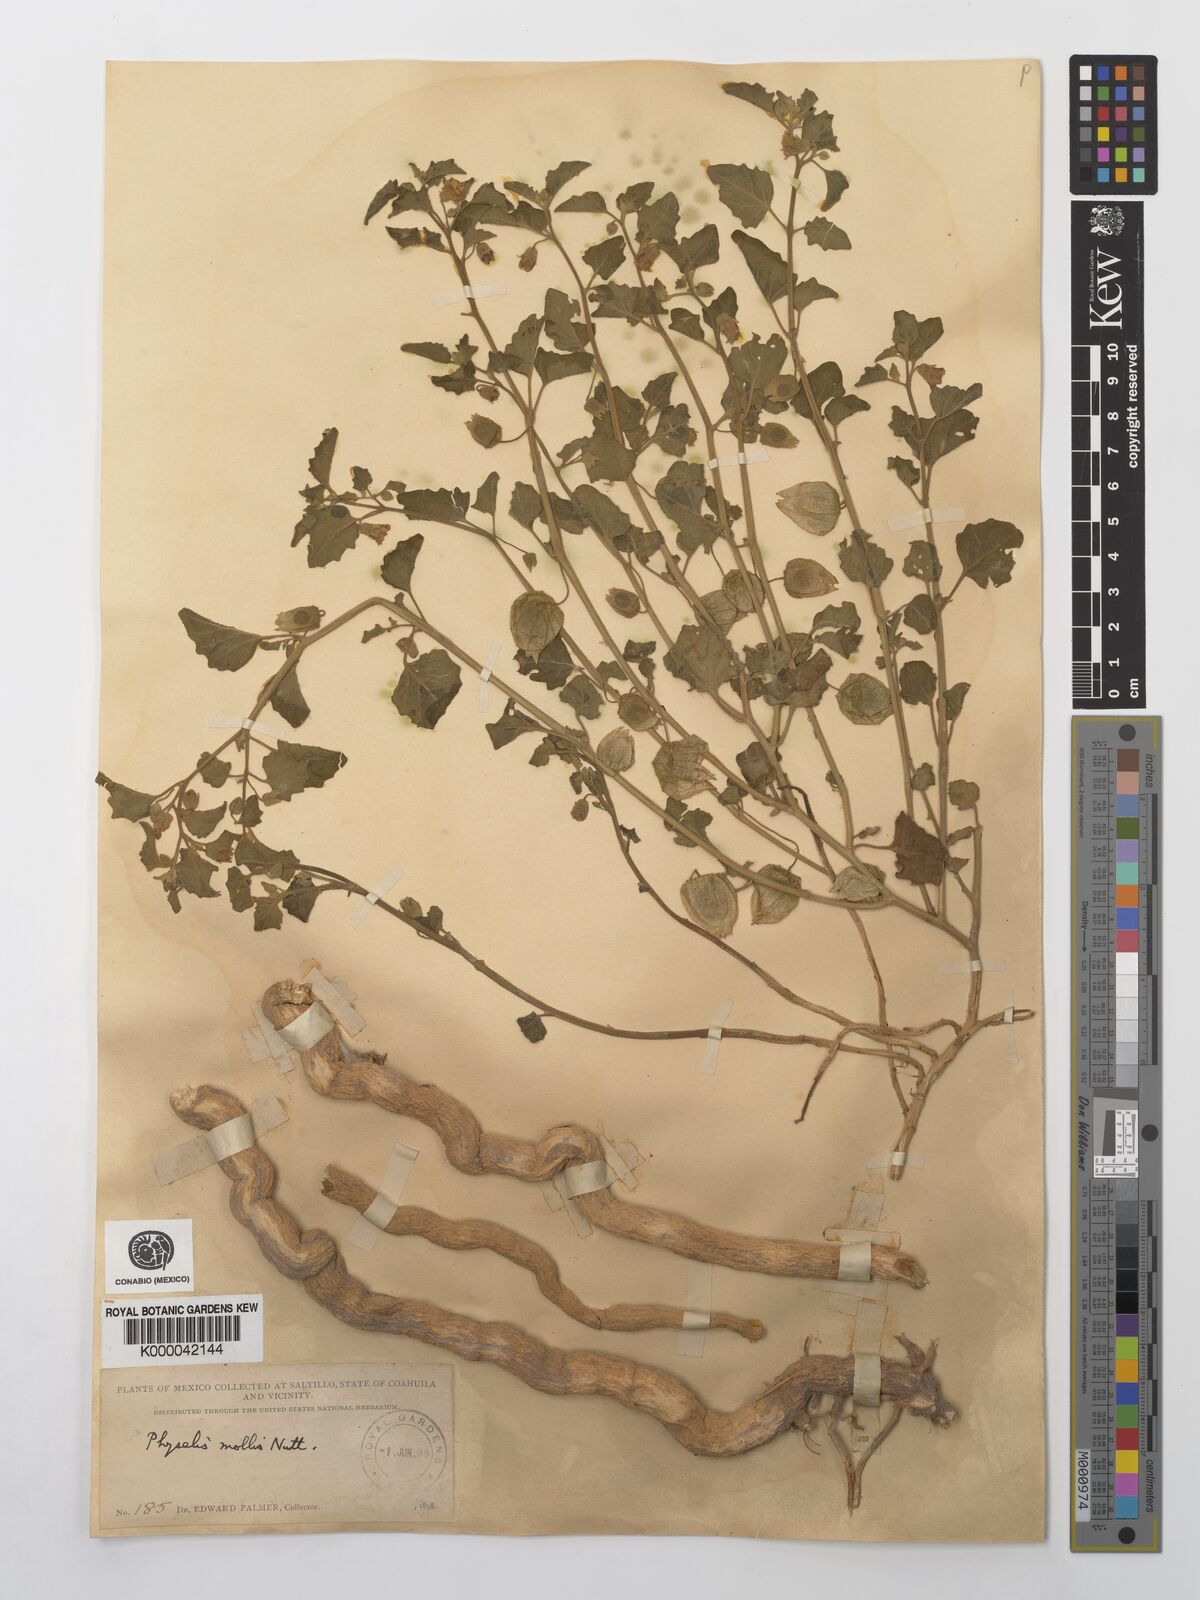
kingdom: Plantae
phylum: Tracheophyta
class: Magnoliopsida
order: Solanales
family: Solanaceae
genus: Physalis
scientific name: Physalis cinerascens
